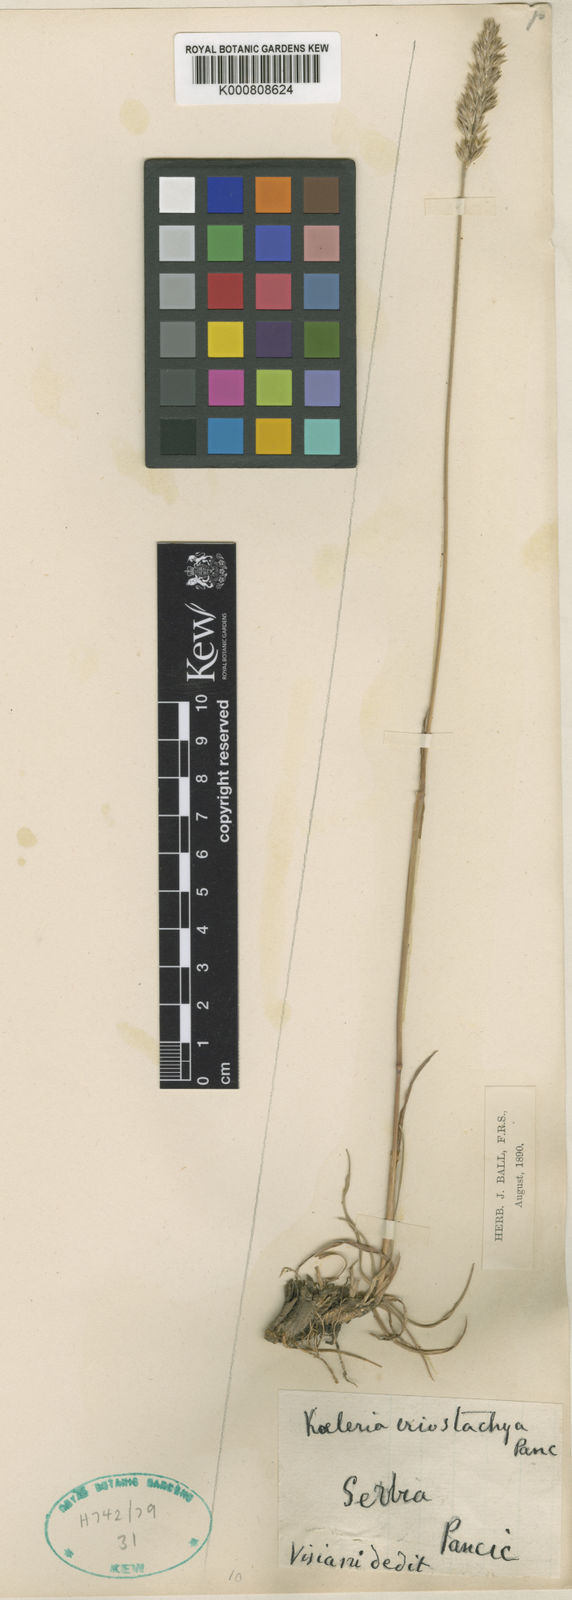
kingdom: Plantae
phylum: Tracheophyta
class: Liliopsida
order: Poales
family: Poaceae
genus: Koeleria
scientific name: Koeleria eriostachya
